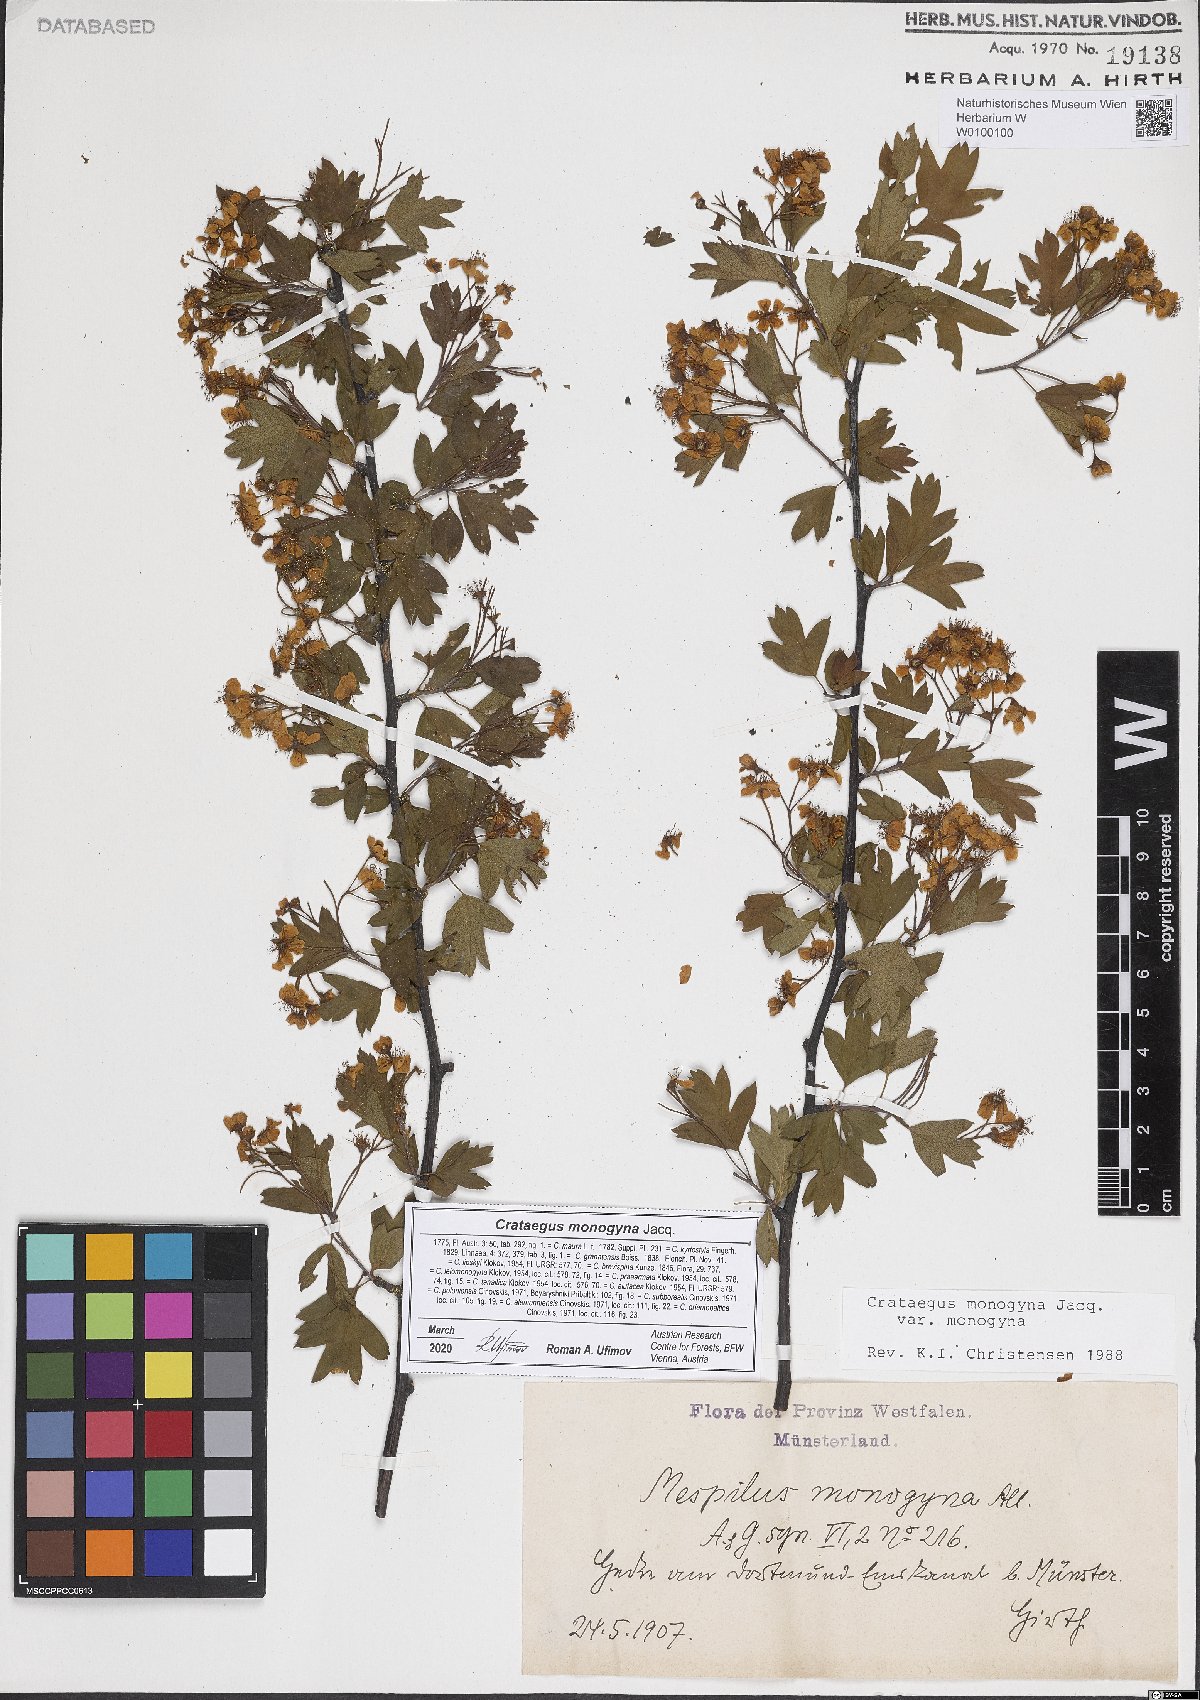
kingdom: Plantae
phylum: Tracheophyta
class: Magnoliopsida
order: Rosales
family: Rosaceae
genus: Crataegus
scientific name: Crataegus monogyna
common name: Hawthorn
